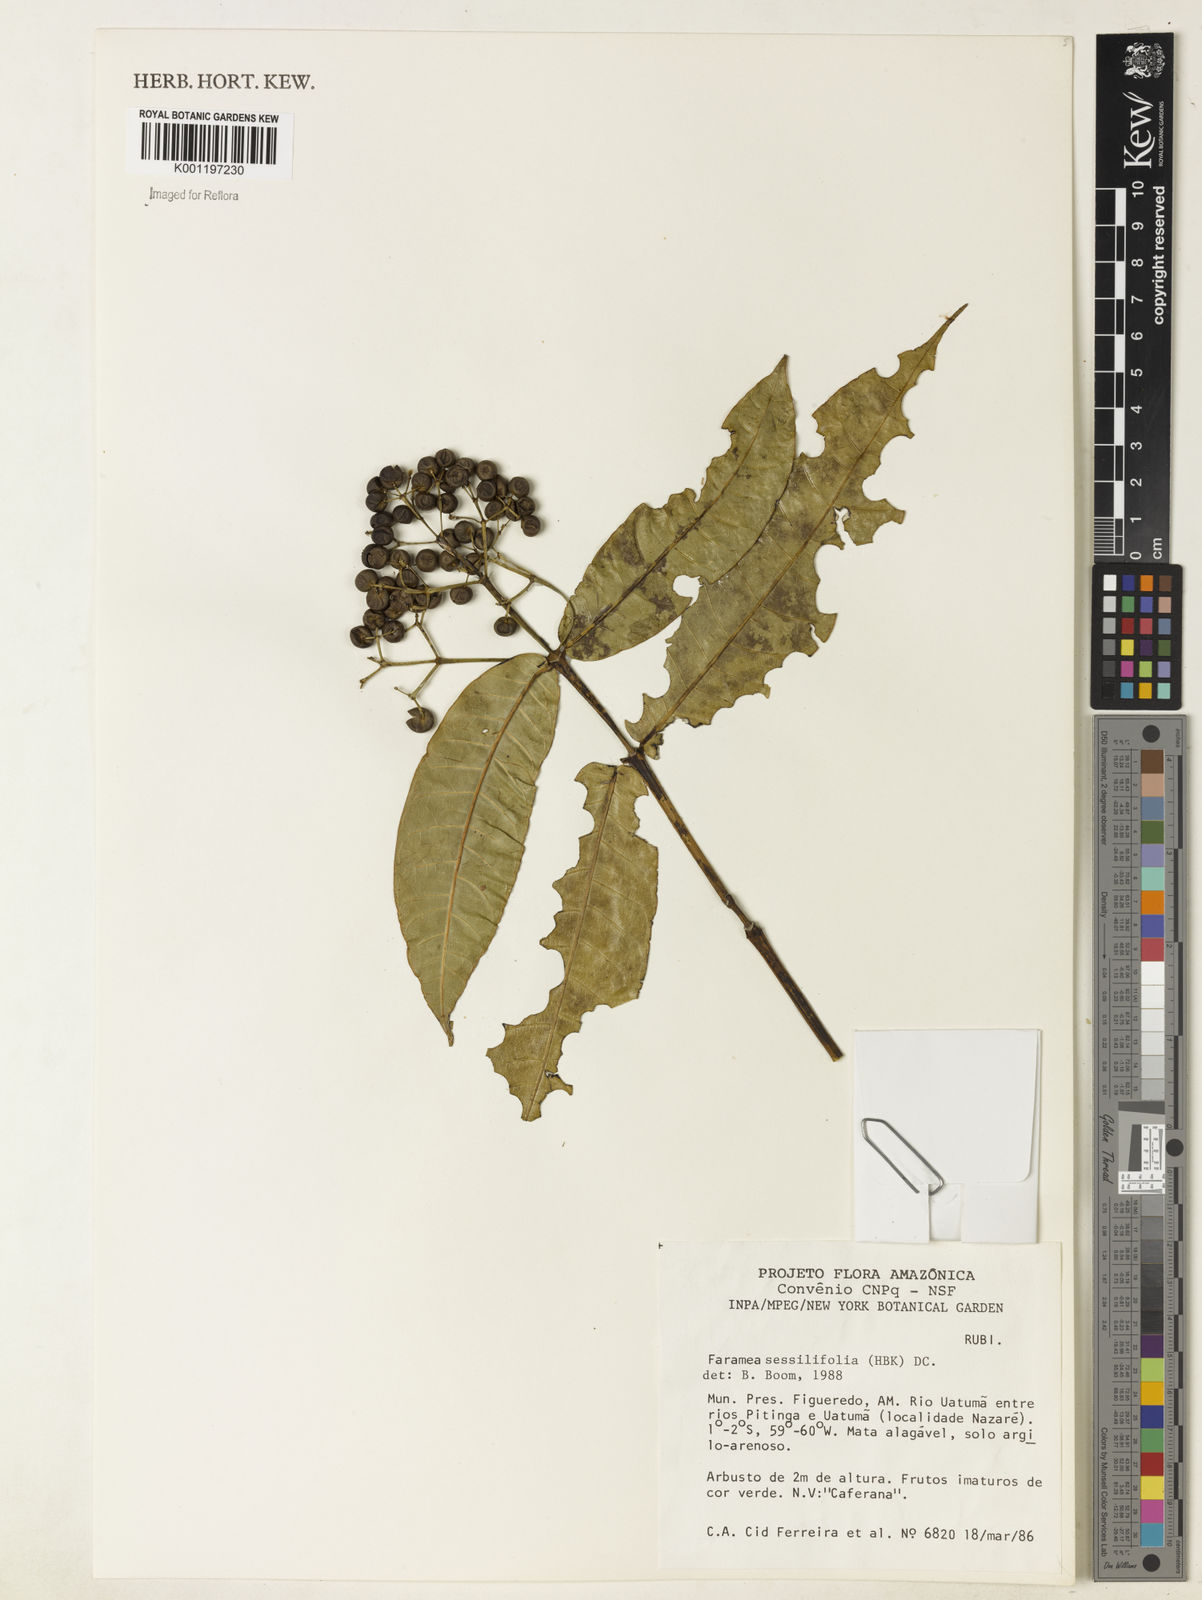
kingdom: Plantae
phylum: Tracheophyta
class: Magnoliopsida
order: Gentianales
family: Rubiaceae
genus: Faramea
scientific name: Faramea sessilifolia
